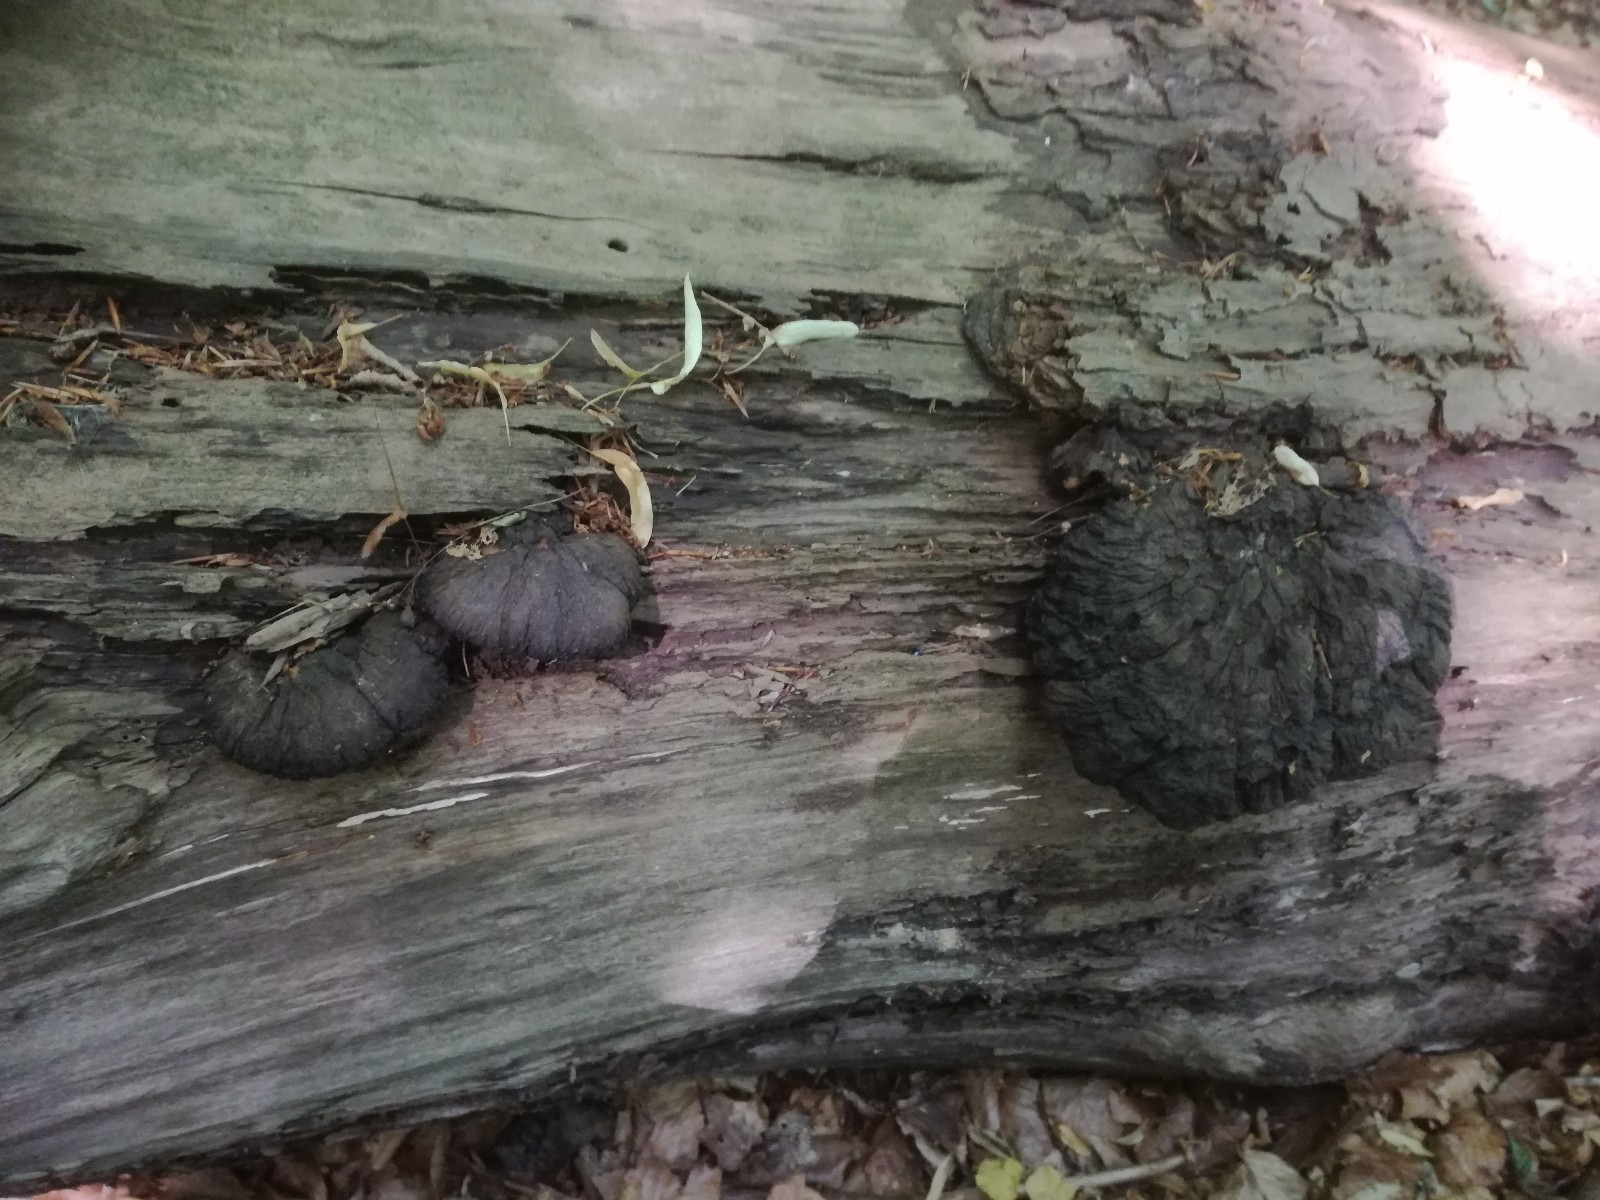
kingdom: Fungi
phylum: Basidiomycota
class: Agaricomycetes
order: Polyporales
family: Ischnodermataceae
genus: Ischnoderma
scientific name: Ischnoderma resinosum
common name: løv-tjæreporesvamp
